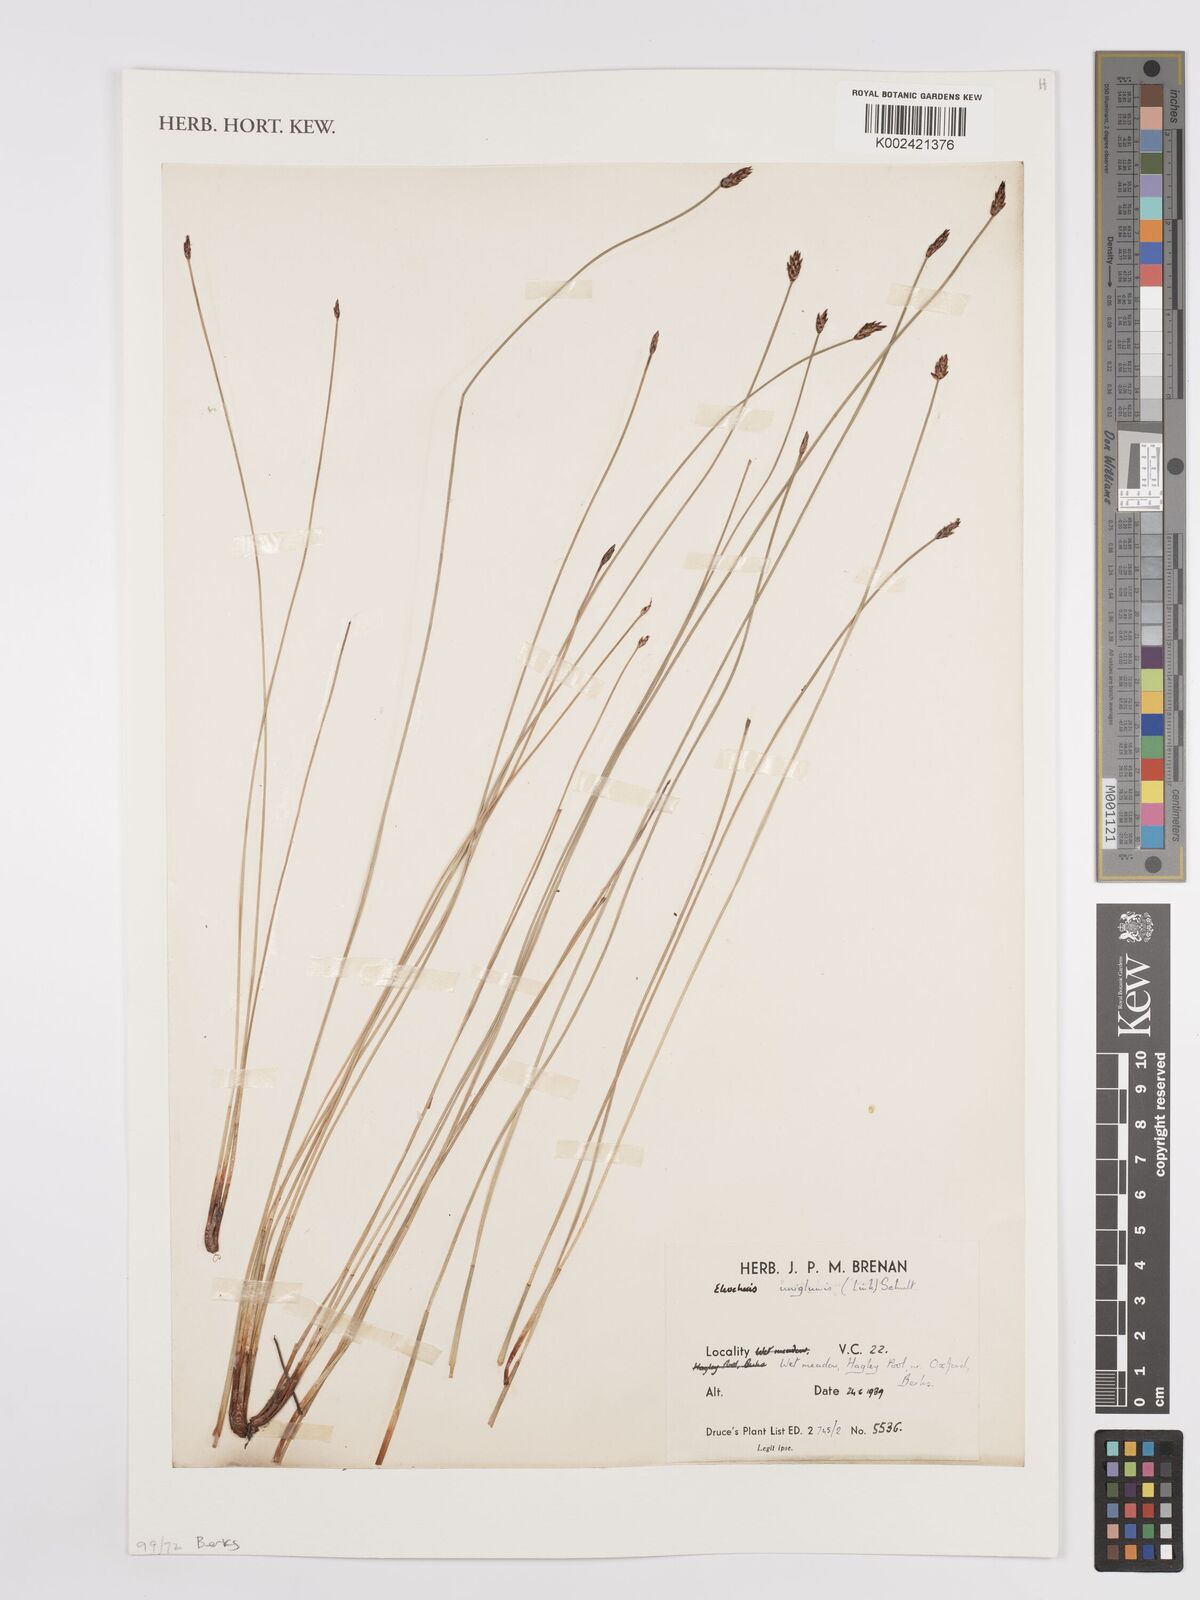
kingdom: Plantae
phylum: Tracheophyta
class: Liliopsida
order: Poales
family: Cyperaceae
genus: Eleocharis
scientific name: Eleocharis uniglumis
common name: Slender spike-rush
